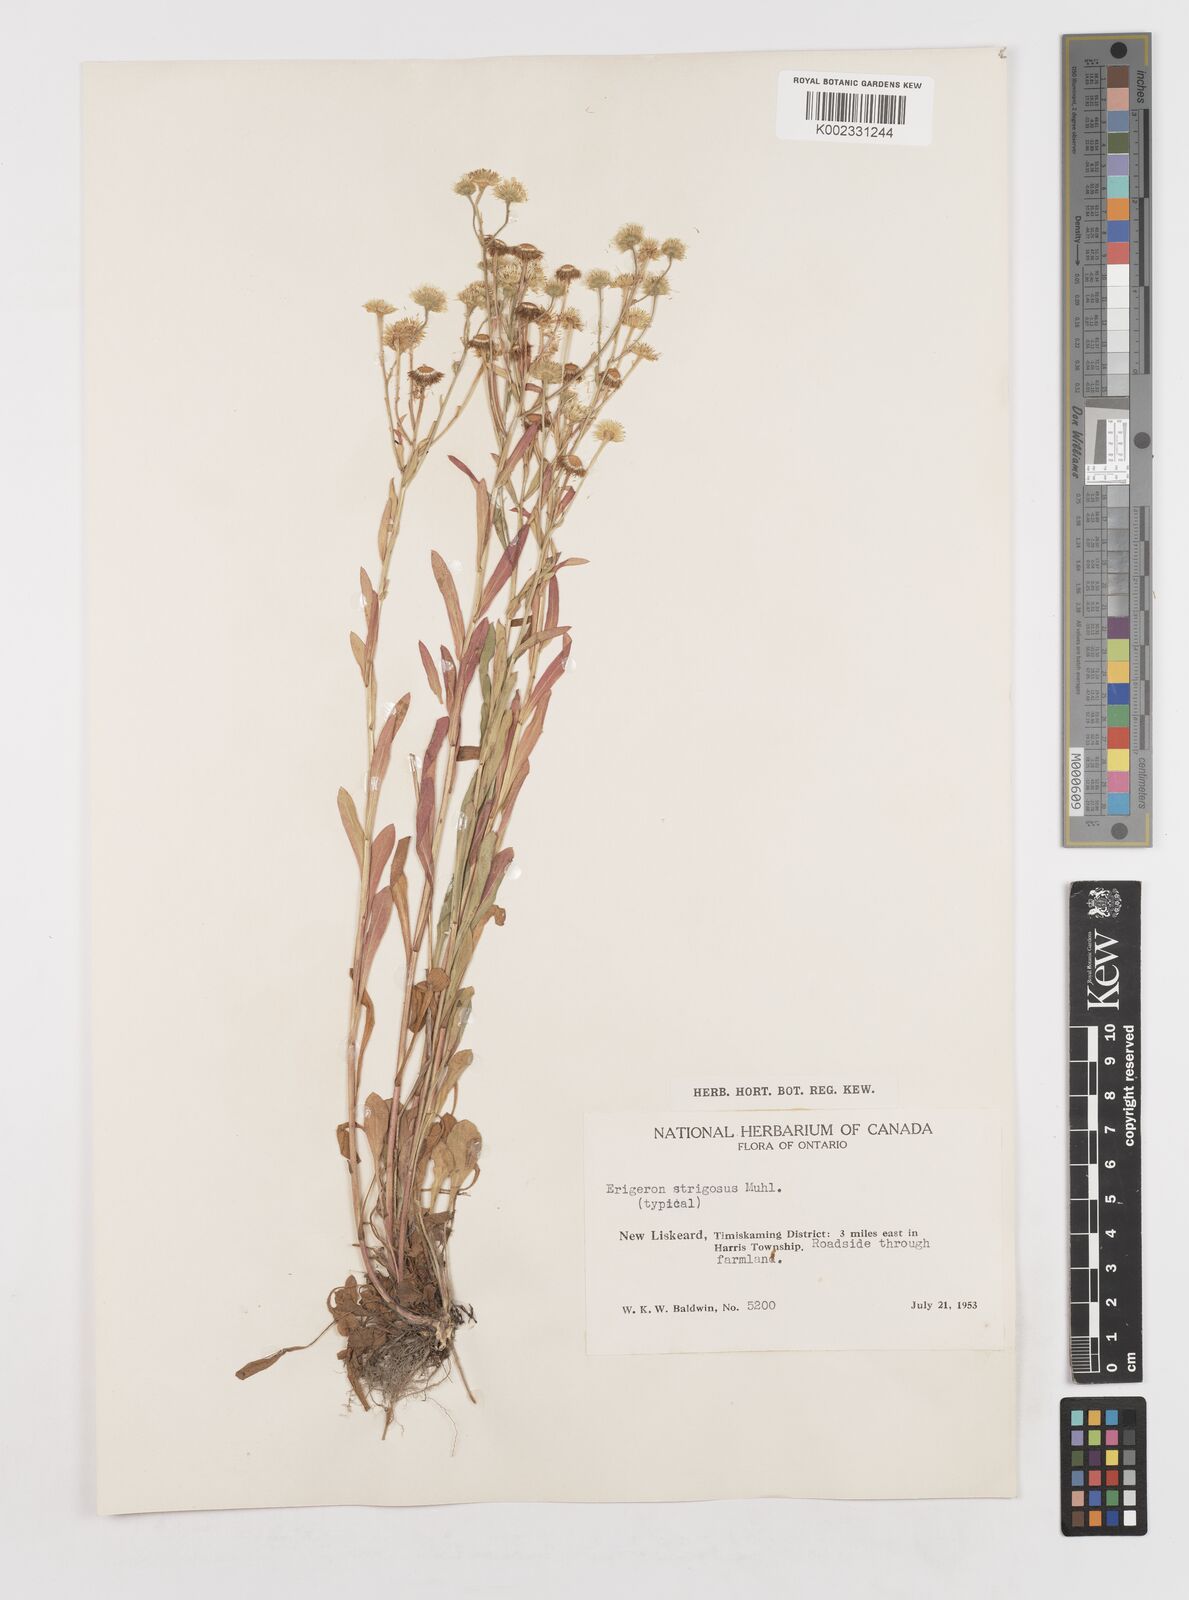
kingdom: Plantae
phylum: Tracheophyta
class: Magnoliopsida
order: Asterales
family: Asteraceae
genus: Erigeron
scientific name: Erigeron strigosus
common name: Common eastern fleabane
